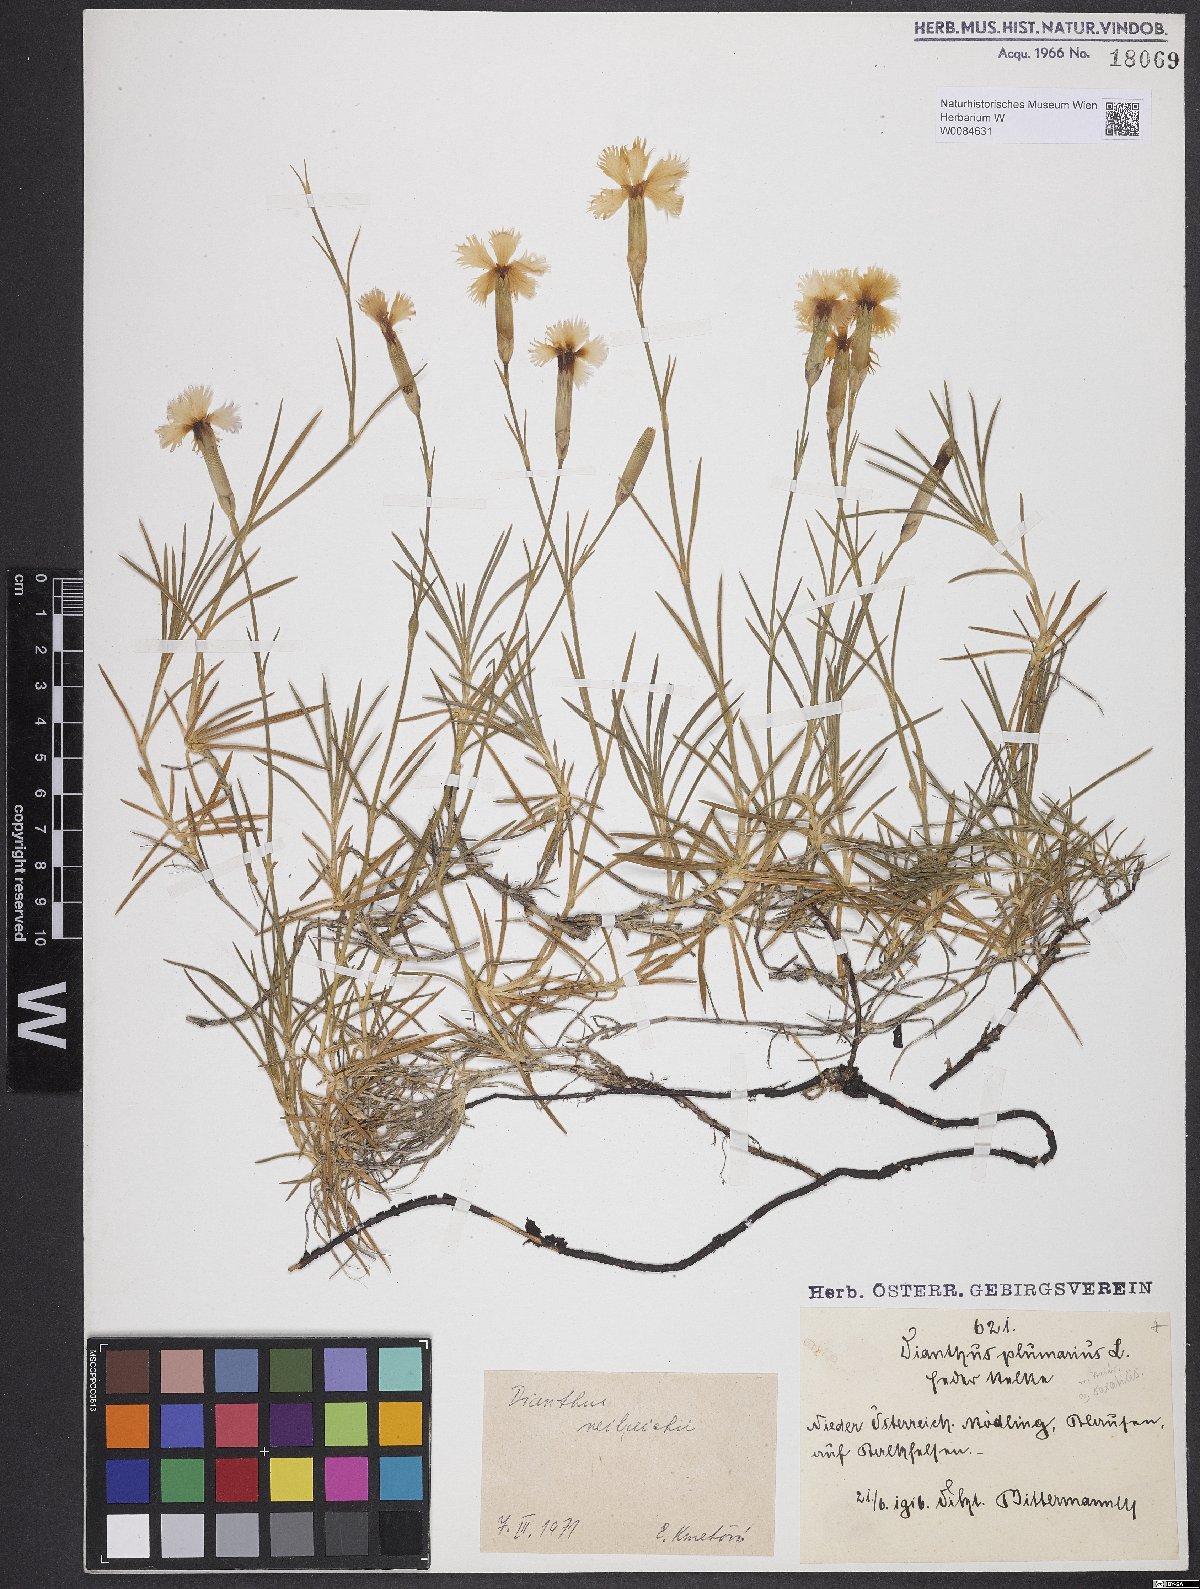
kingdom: Plantae
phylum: Tracheophyta
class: Magnoliopsida
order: Caryophyllales
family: Caryophyllaceae
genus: Dianthus
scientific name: Dianthus plumarius
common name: Pink
